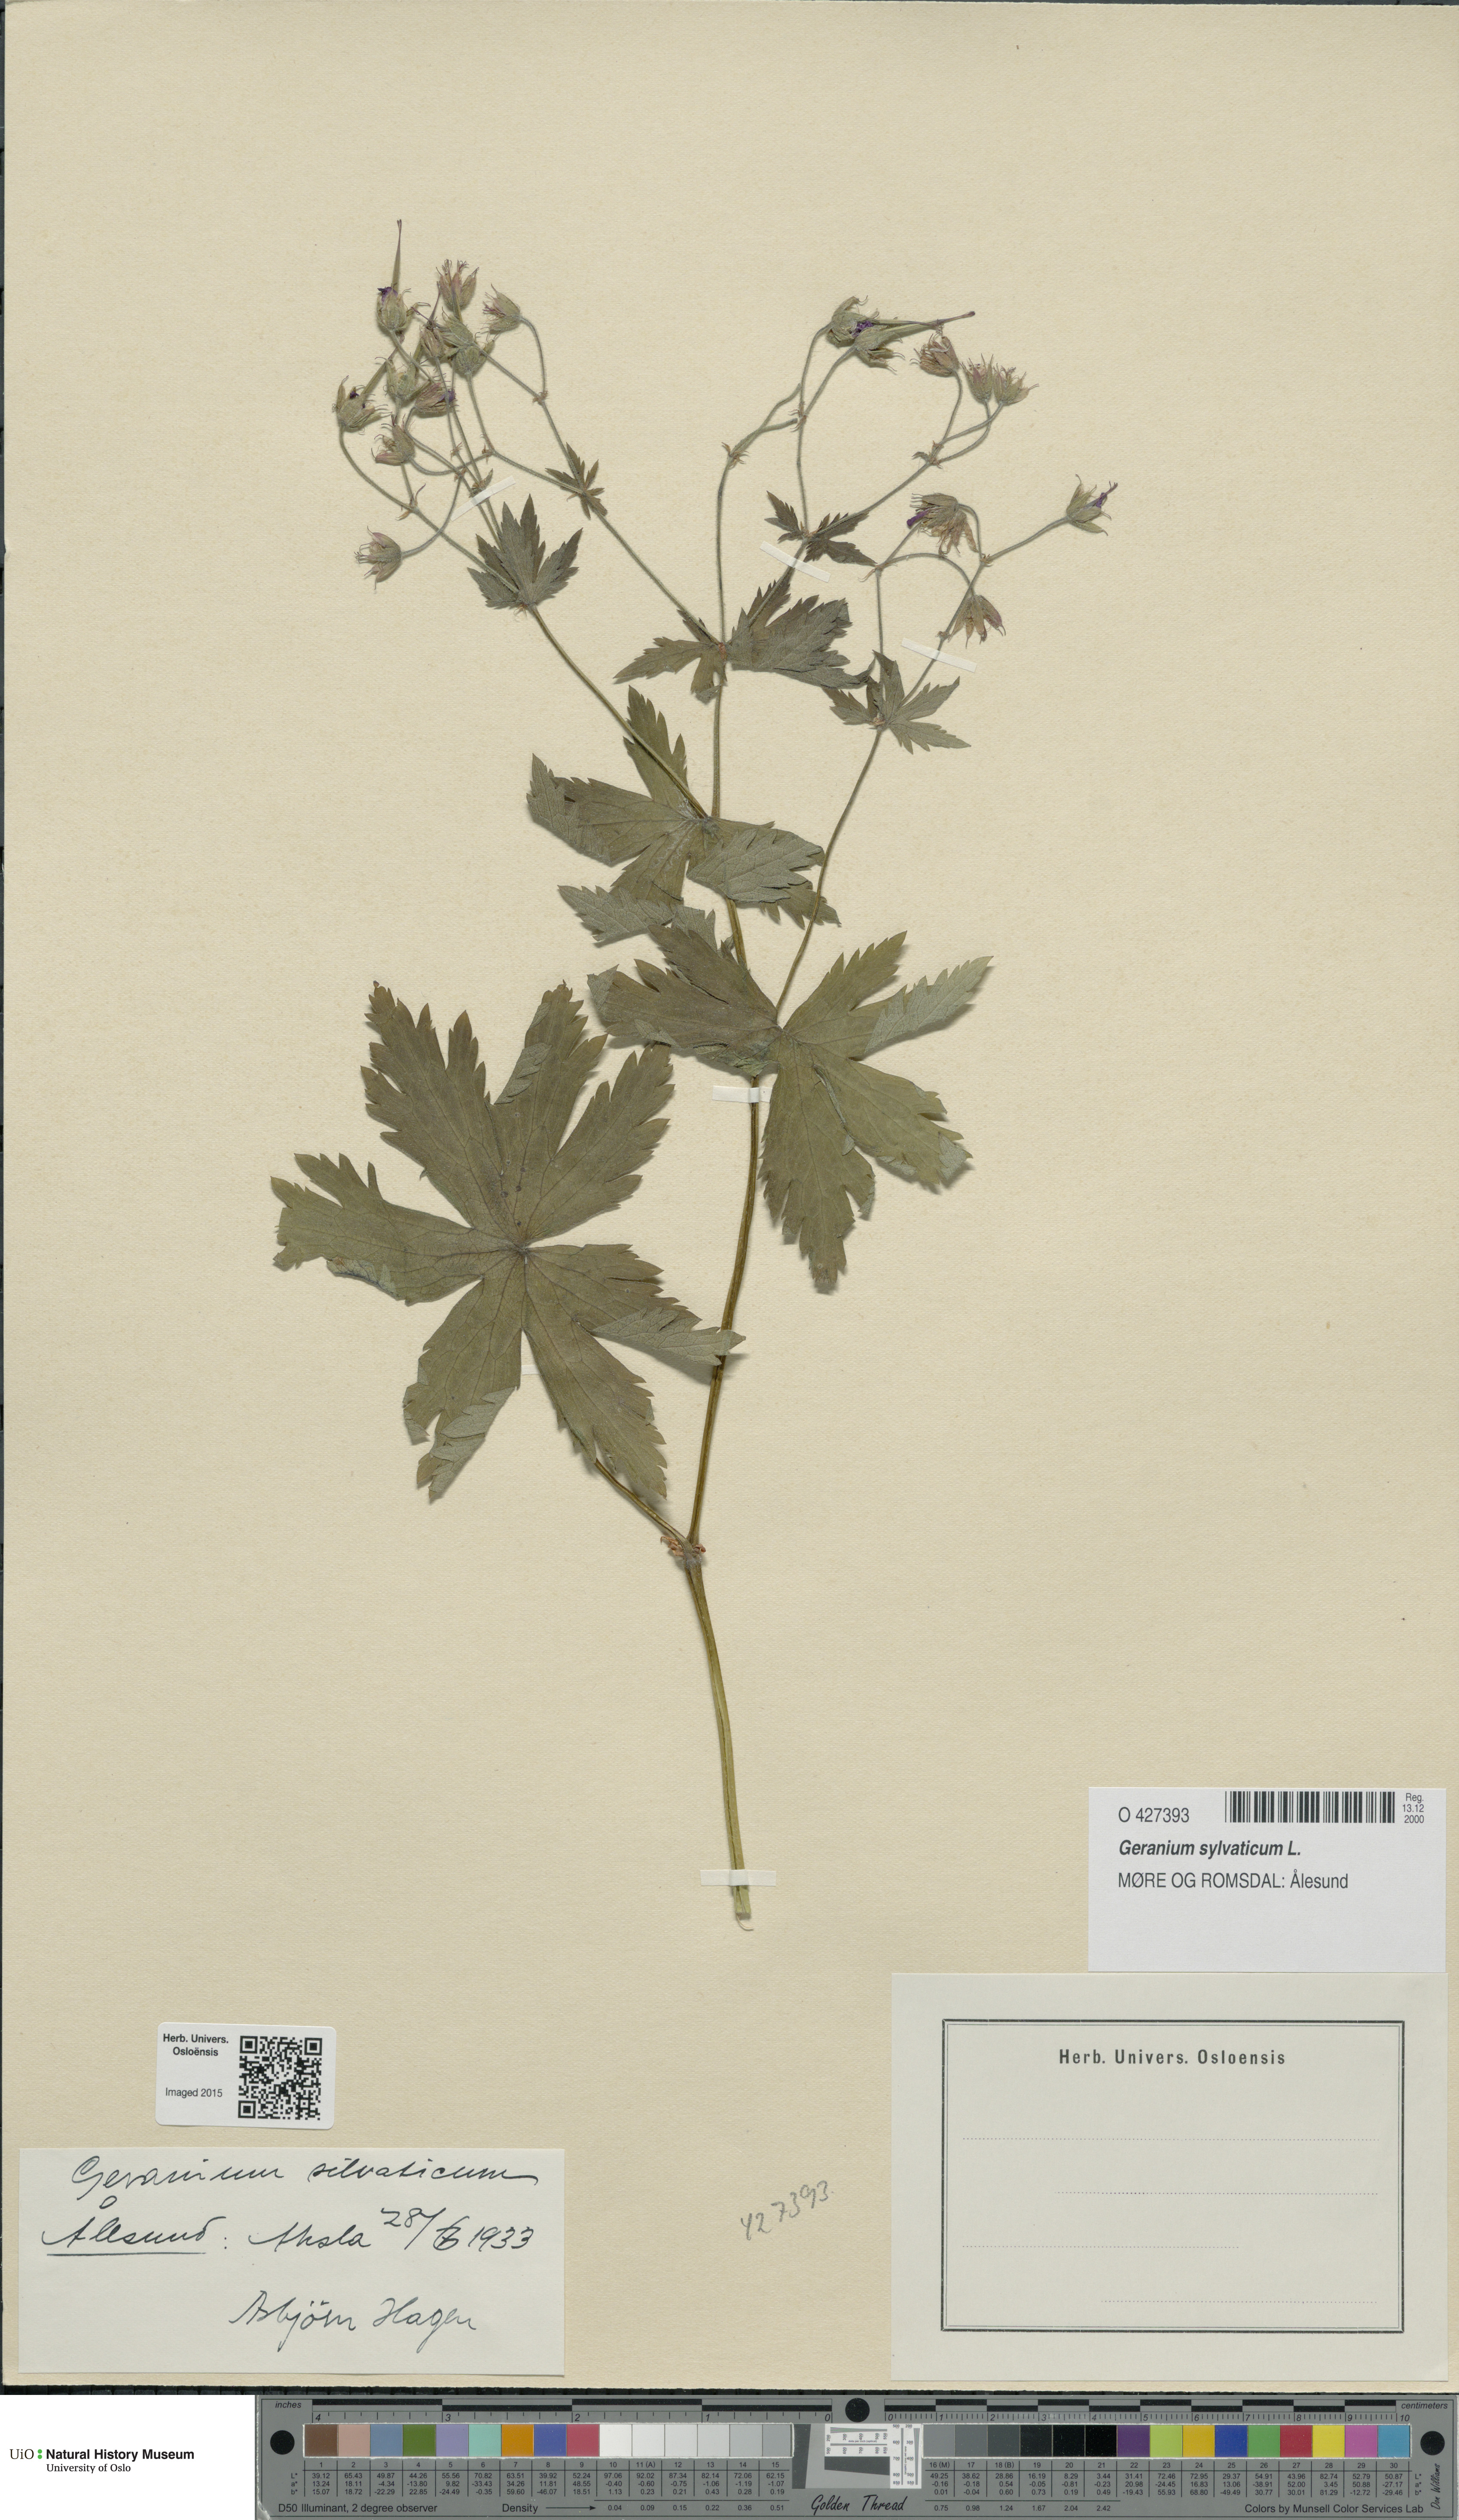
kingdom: Plantae
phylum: Tracheophyta
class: Magnoliopsida
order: Geraniales
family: Geraniaceae
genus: Geranium
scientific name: Geranium sylvaticum
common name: Wood crane's-bill
